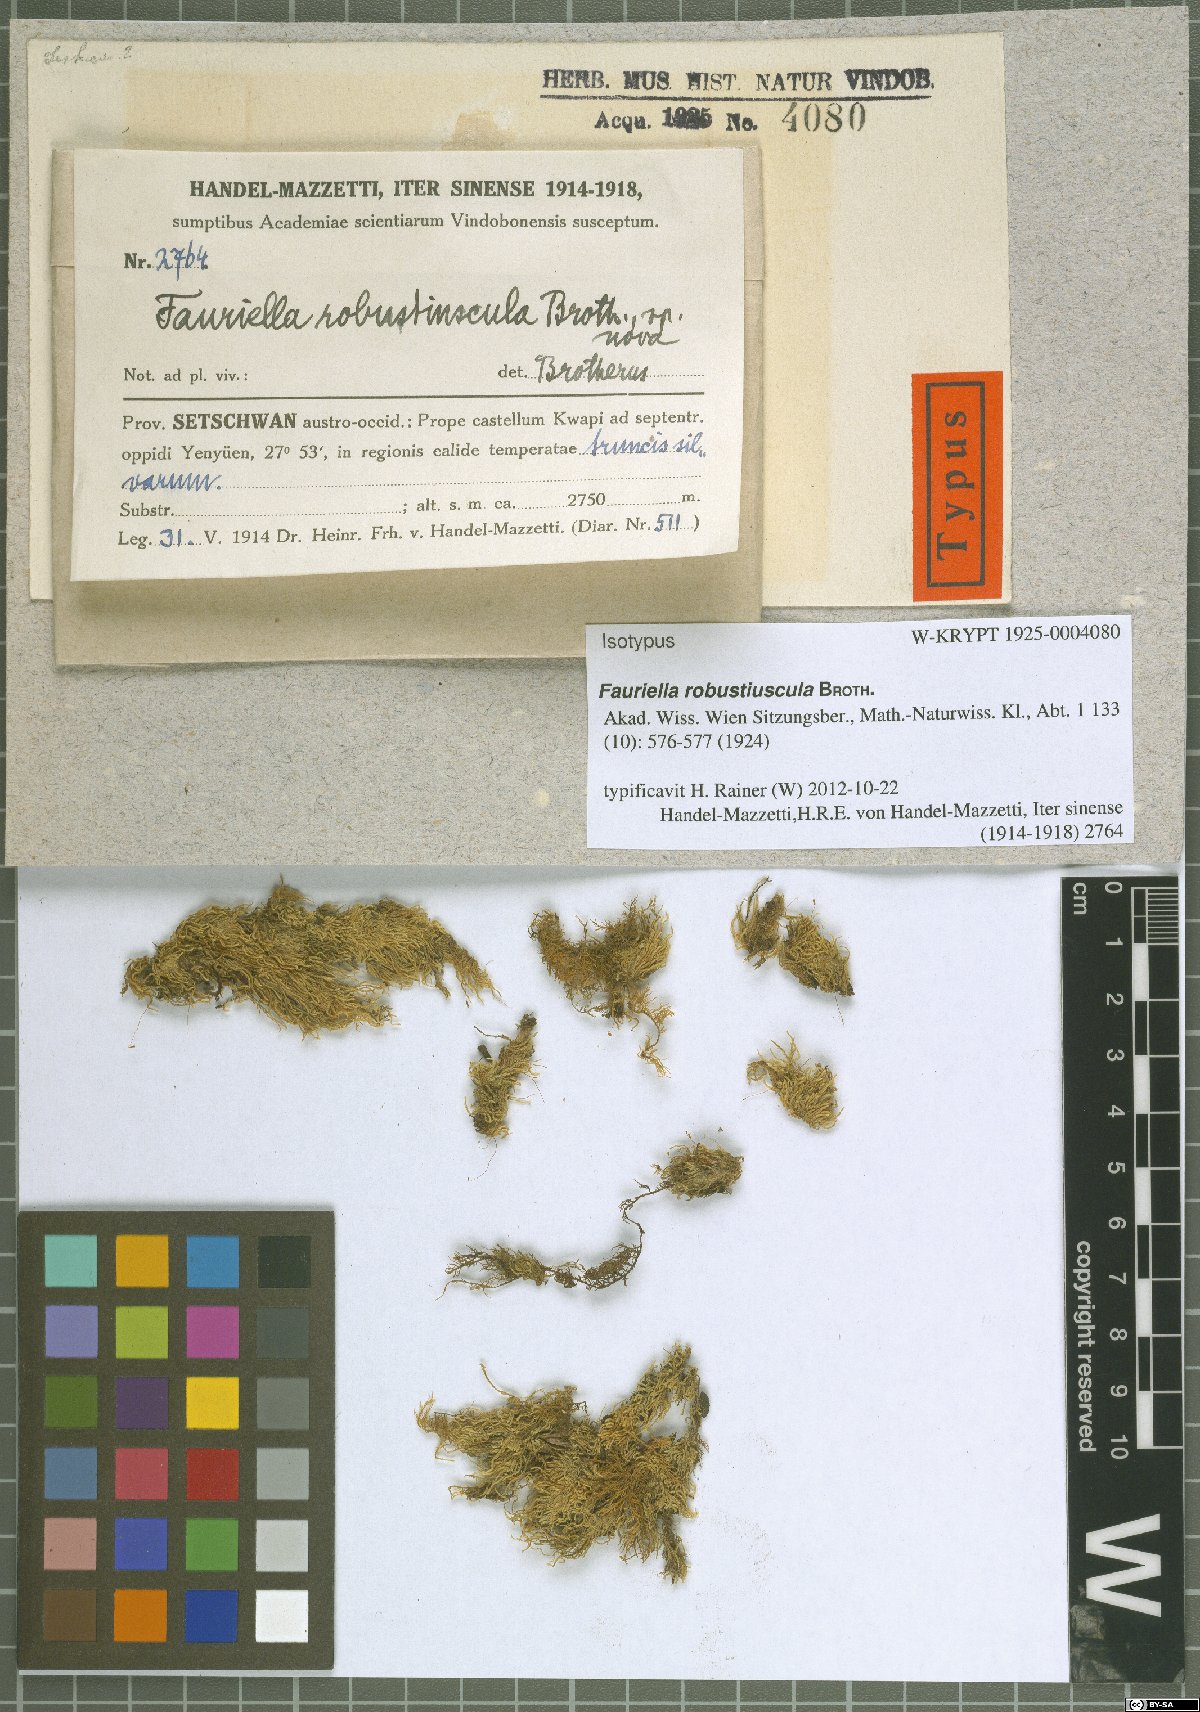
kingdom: Plantae
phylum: Bryophyta
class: Bryopsida
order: Hypnales
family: Thuidiaceae
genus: Fauriella
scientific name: Fauriella robustiuscula
